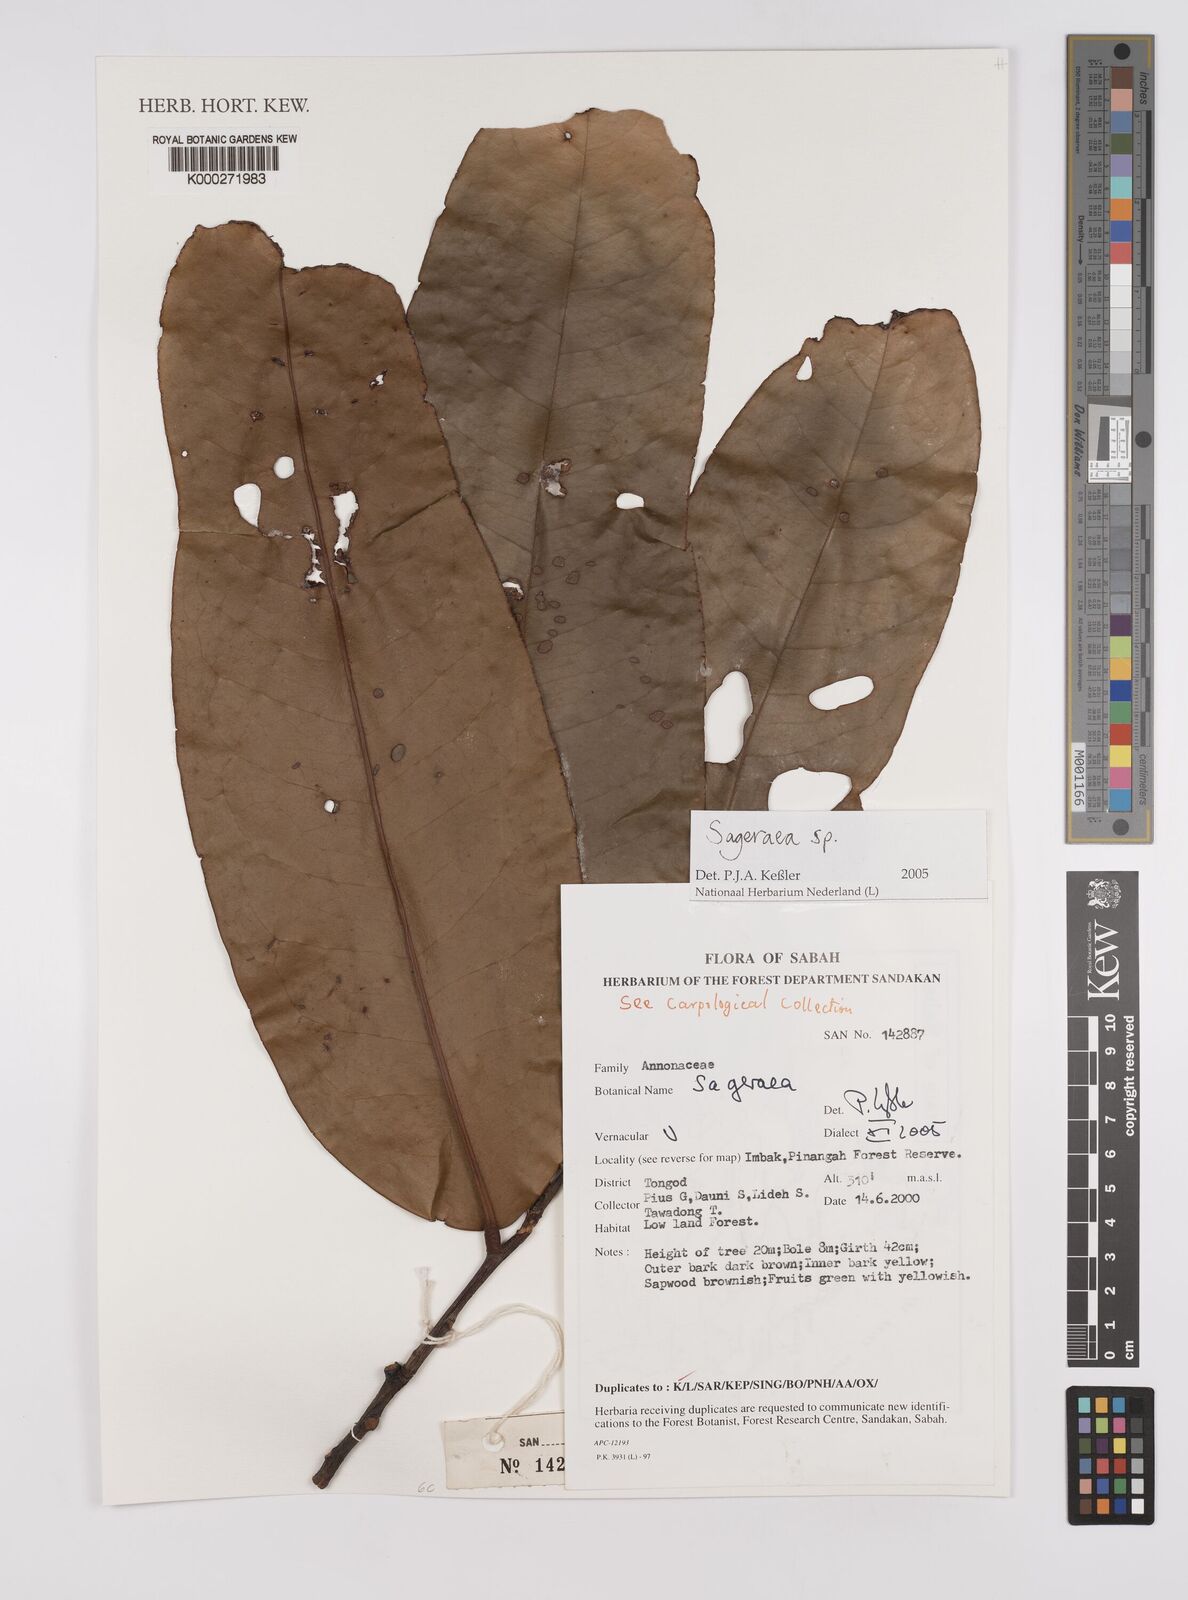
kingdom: Plantae
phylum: Tracheophyta
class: Magnoliopsida
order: Magnoliales
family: Annonaceae
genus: Sageraea
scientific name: Sageraea
